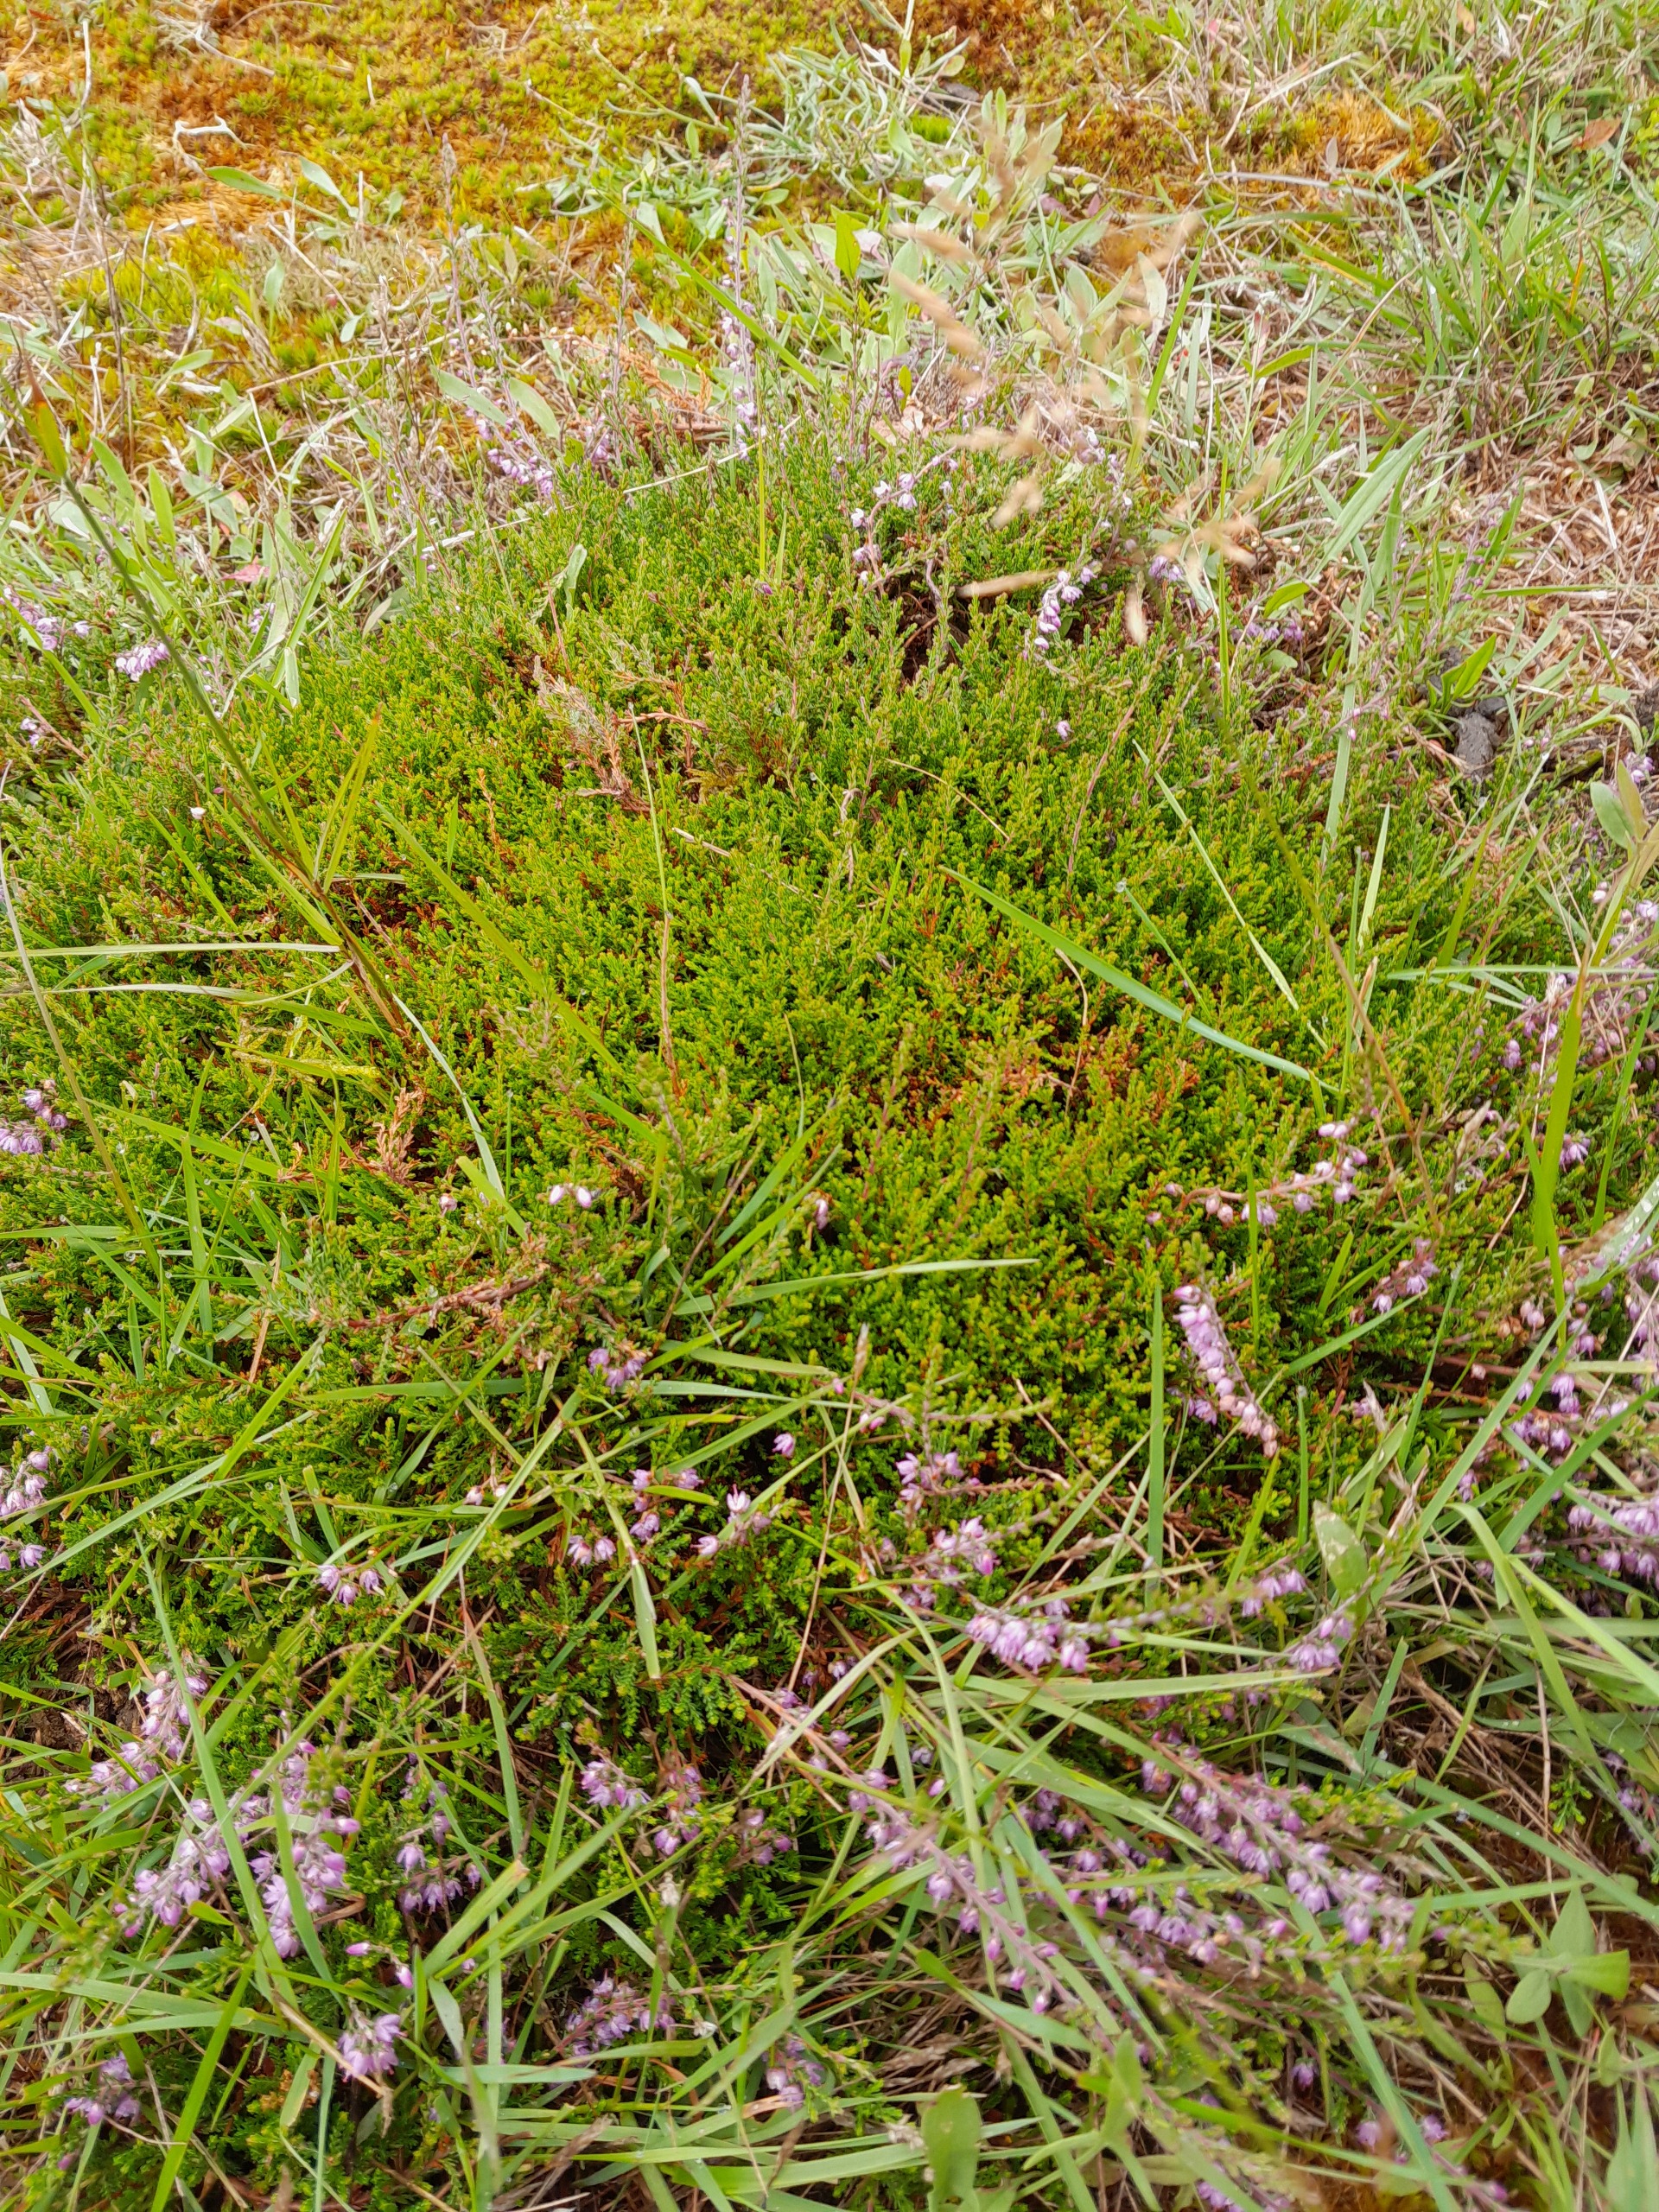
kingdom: Plantae
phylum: Tracheophyta
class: Magnoliopsida
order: Ericales
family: Ericaceae
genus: Calluna
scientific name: Calluna vulgaris
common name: Hedelyng
